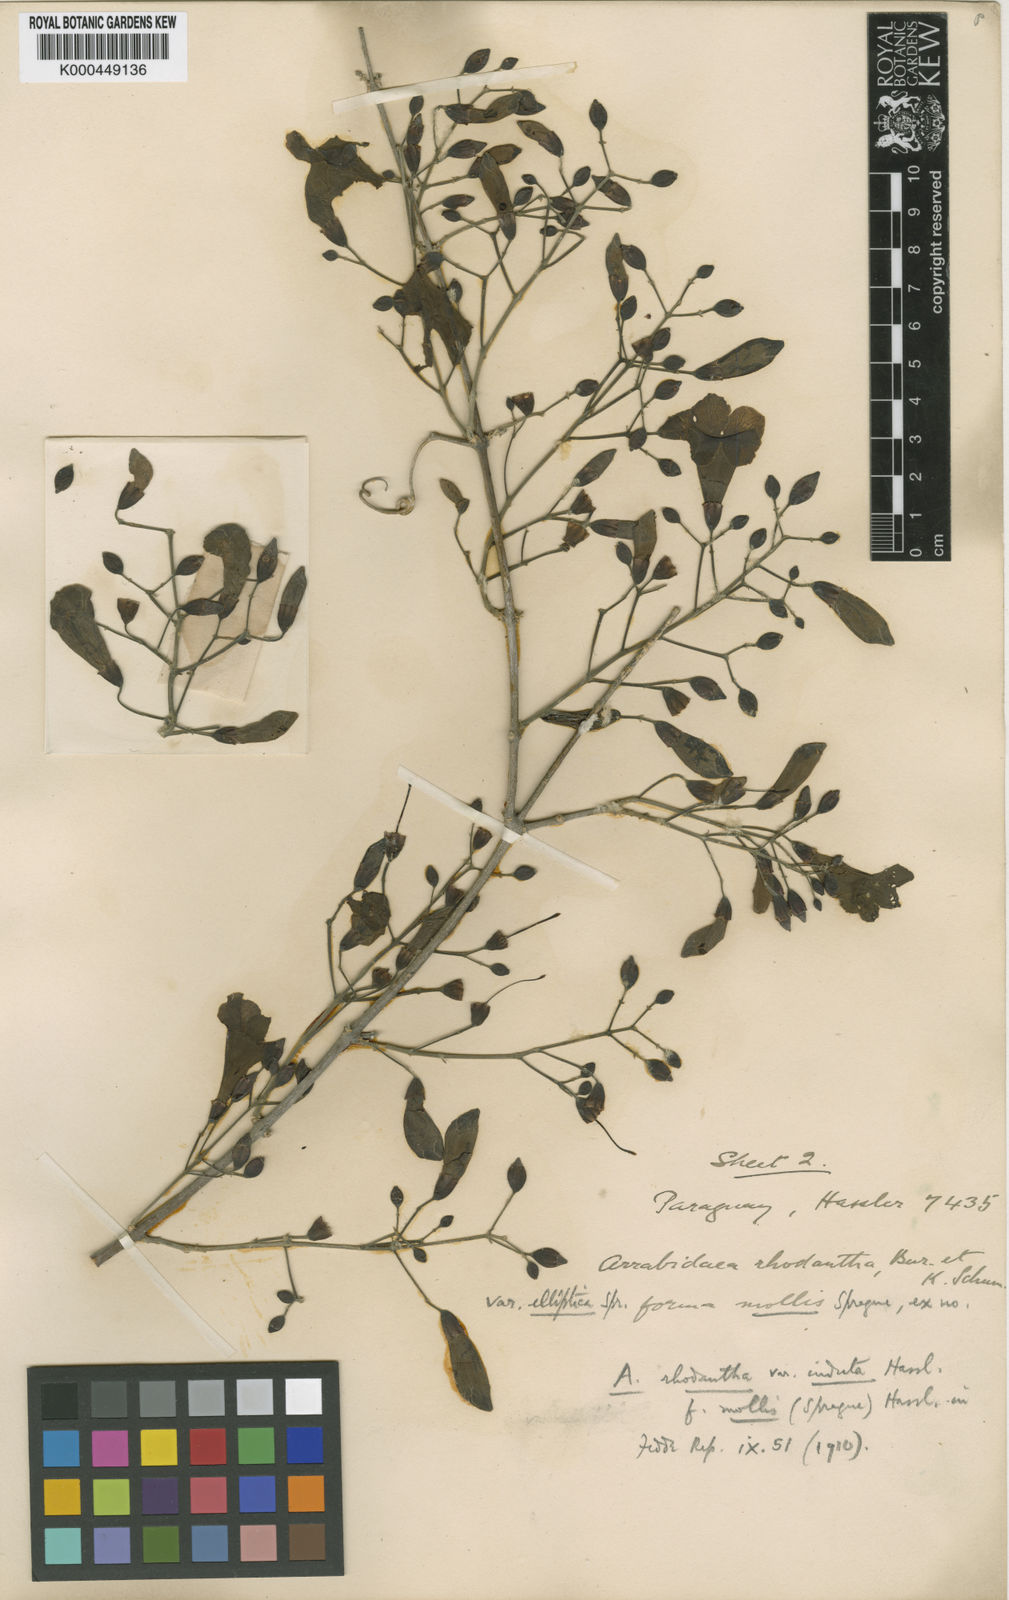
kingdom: Plantae
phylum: Tracheophyta
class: Magnoliopsida
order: Lamiales
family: Bignoniaceae
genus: Tanaecium
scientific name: Tanaecium dichotomum
